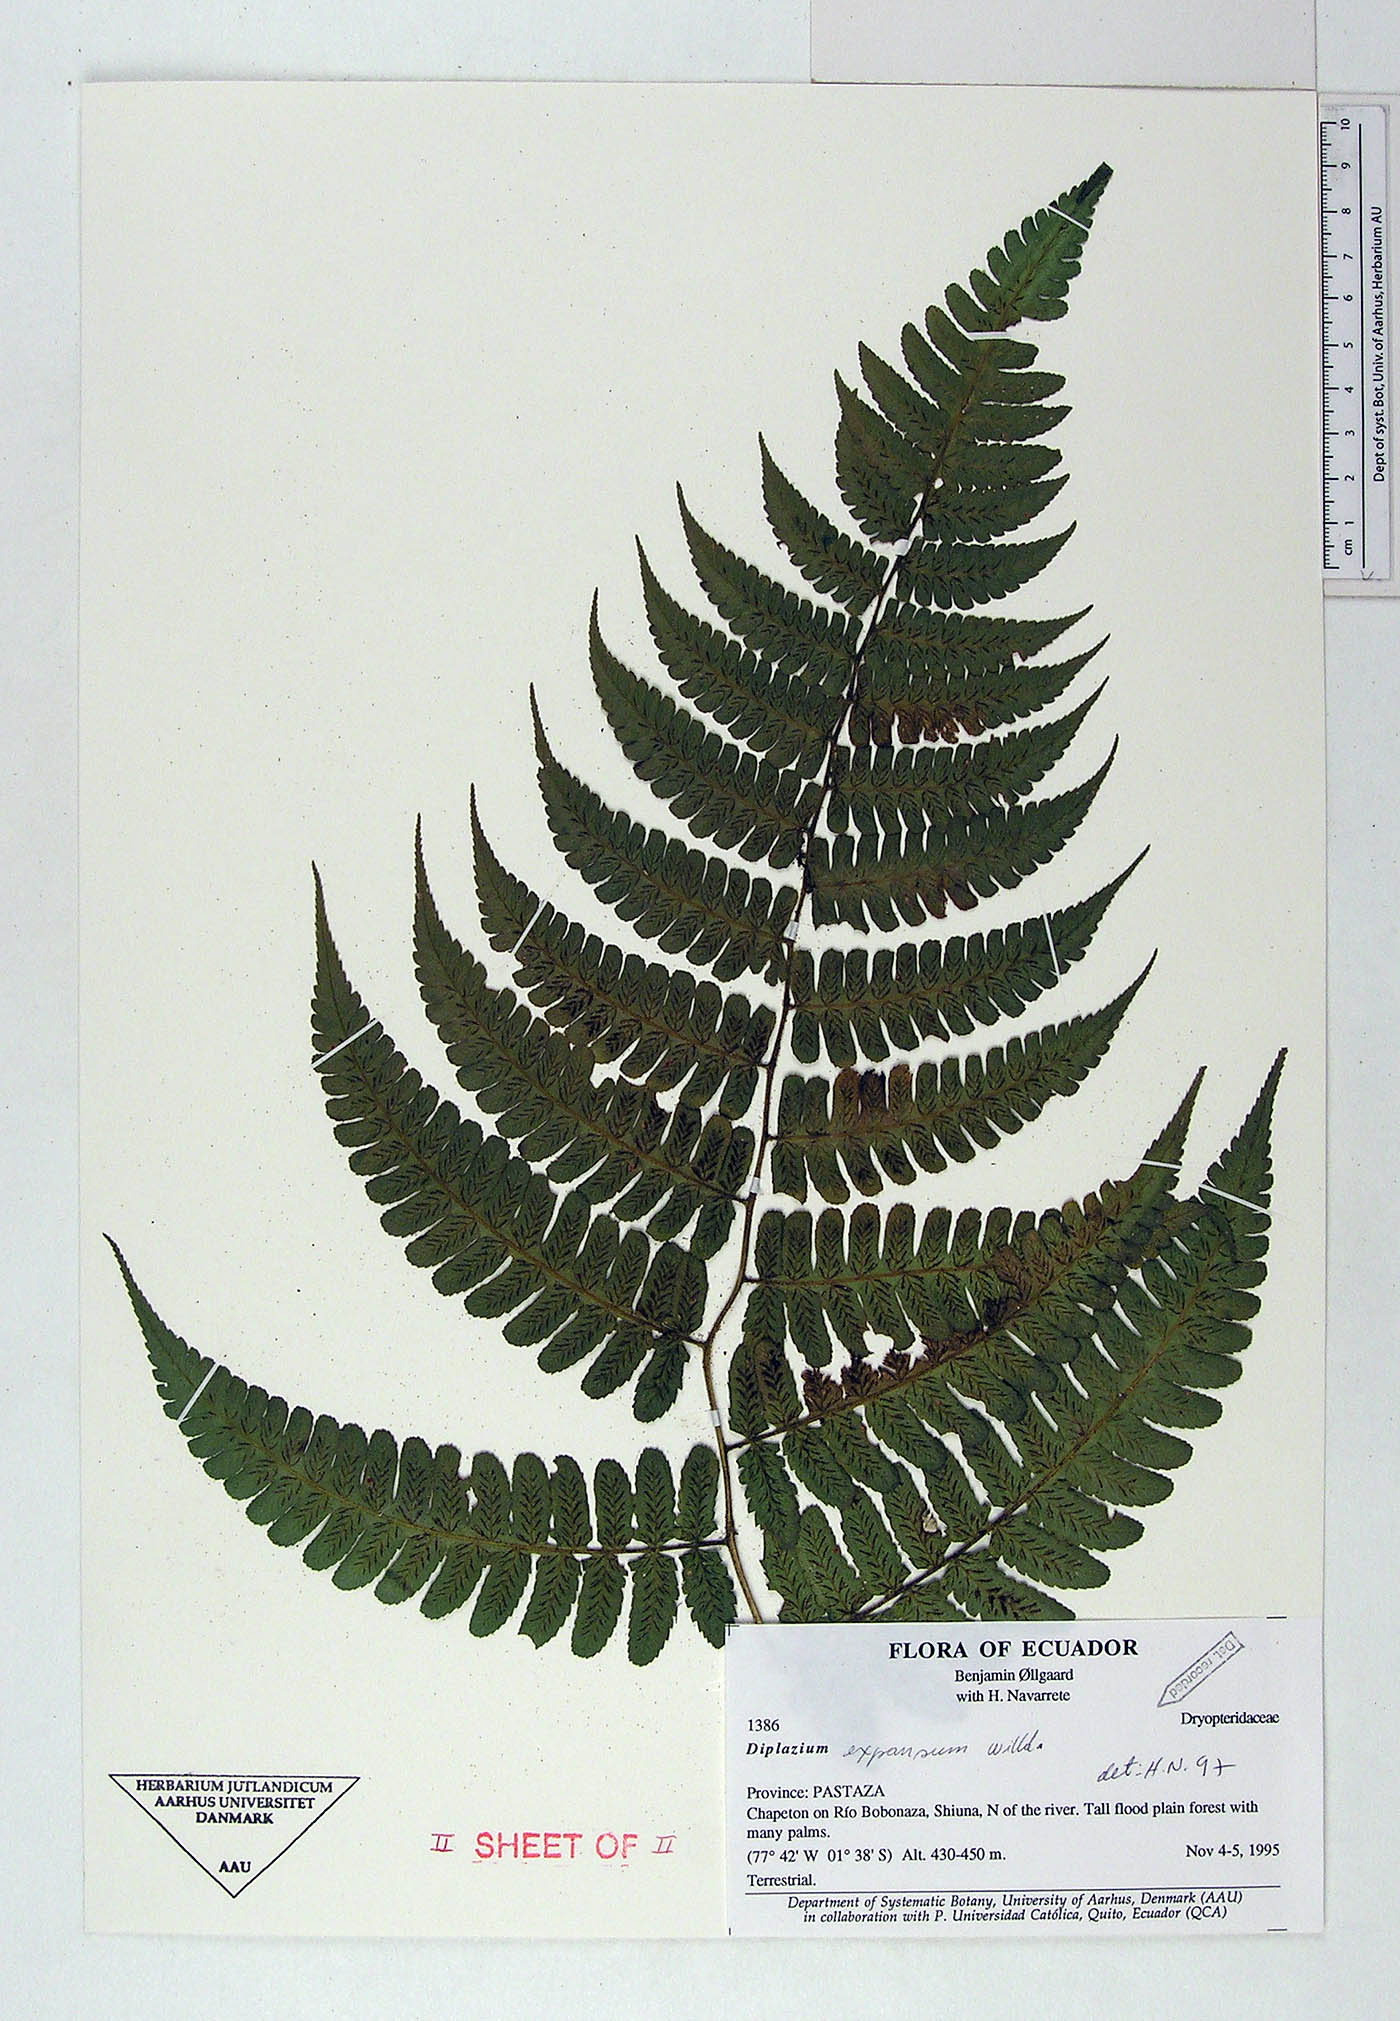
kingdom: Plantae
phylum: Tracheophyta
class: Polypodiopsida
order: Polypodiales
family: Athyriaceae
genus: Diplazium
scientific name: Diplazium expansum
